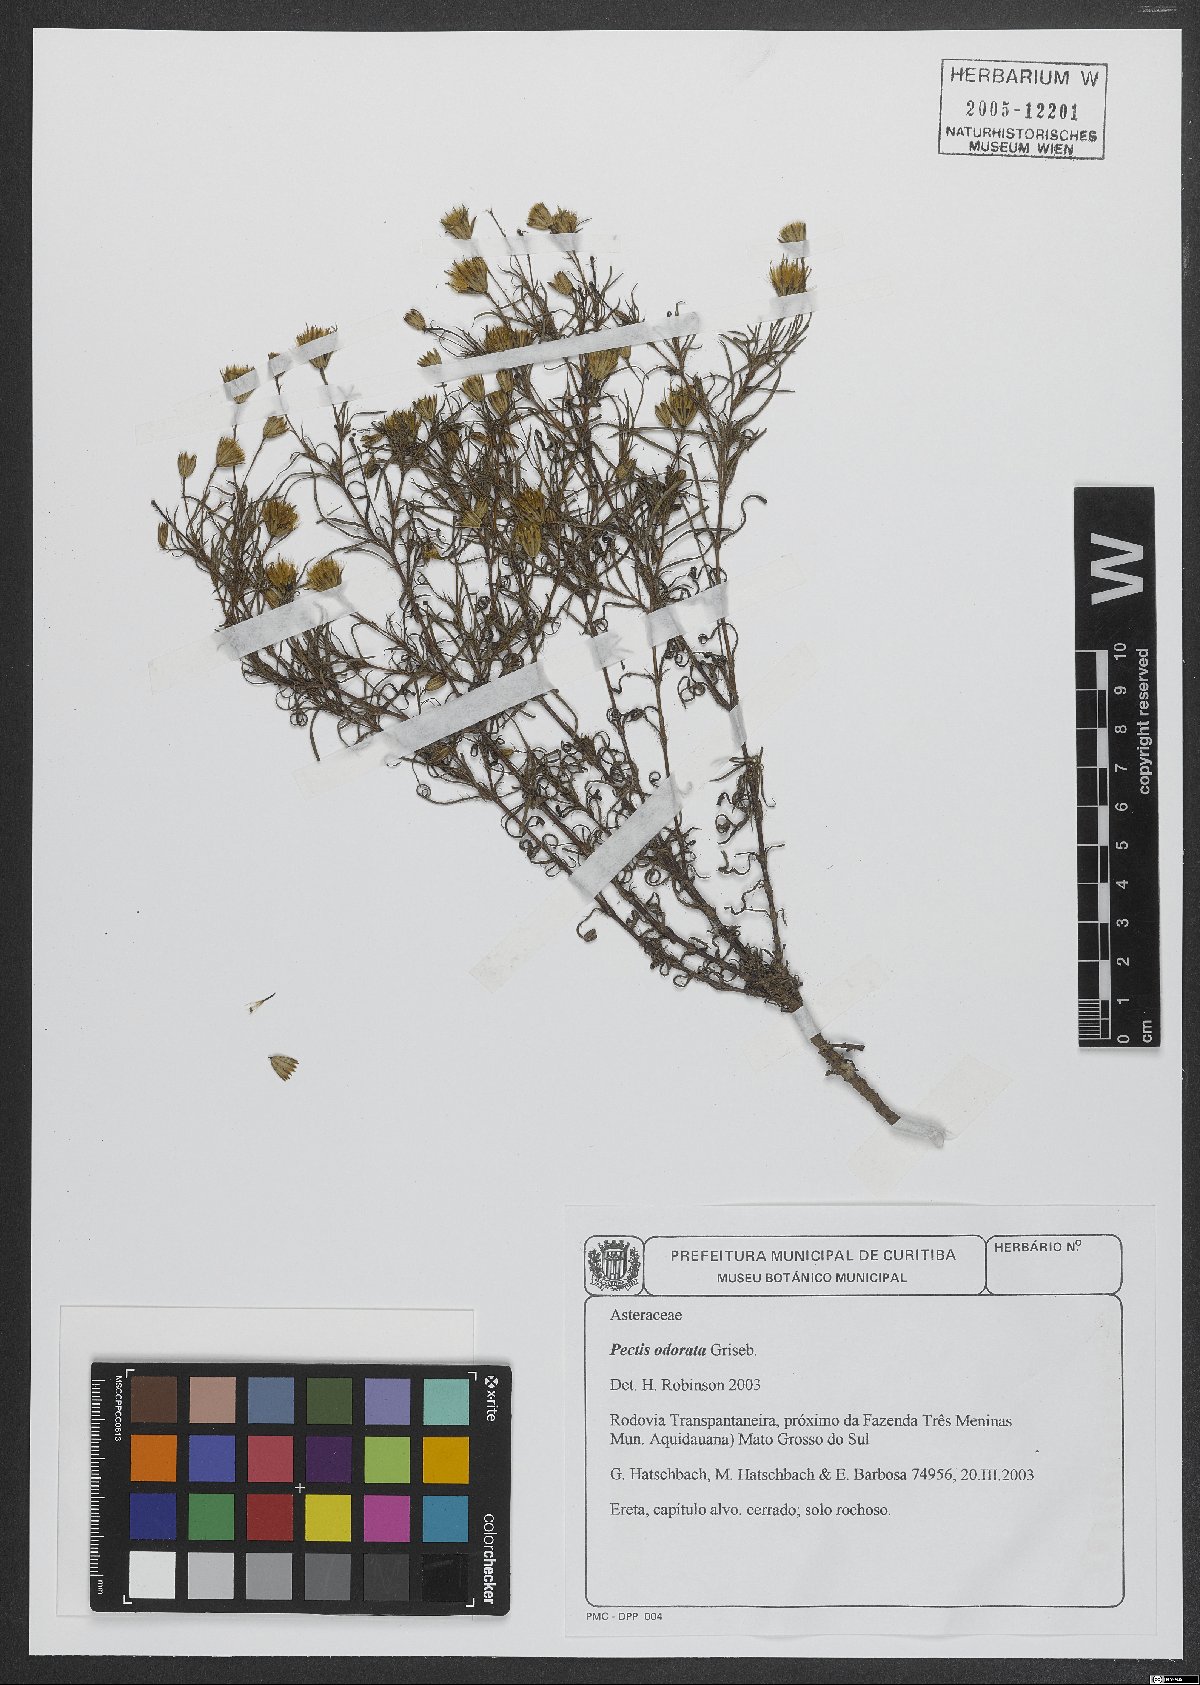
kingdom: Plantae
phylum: Tracheophyta
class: Magnoliopsida
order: Asterales
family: Asteraceae
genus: Pectis
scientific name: Pectis odorata
